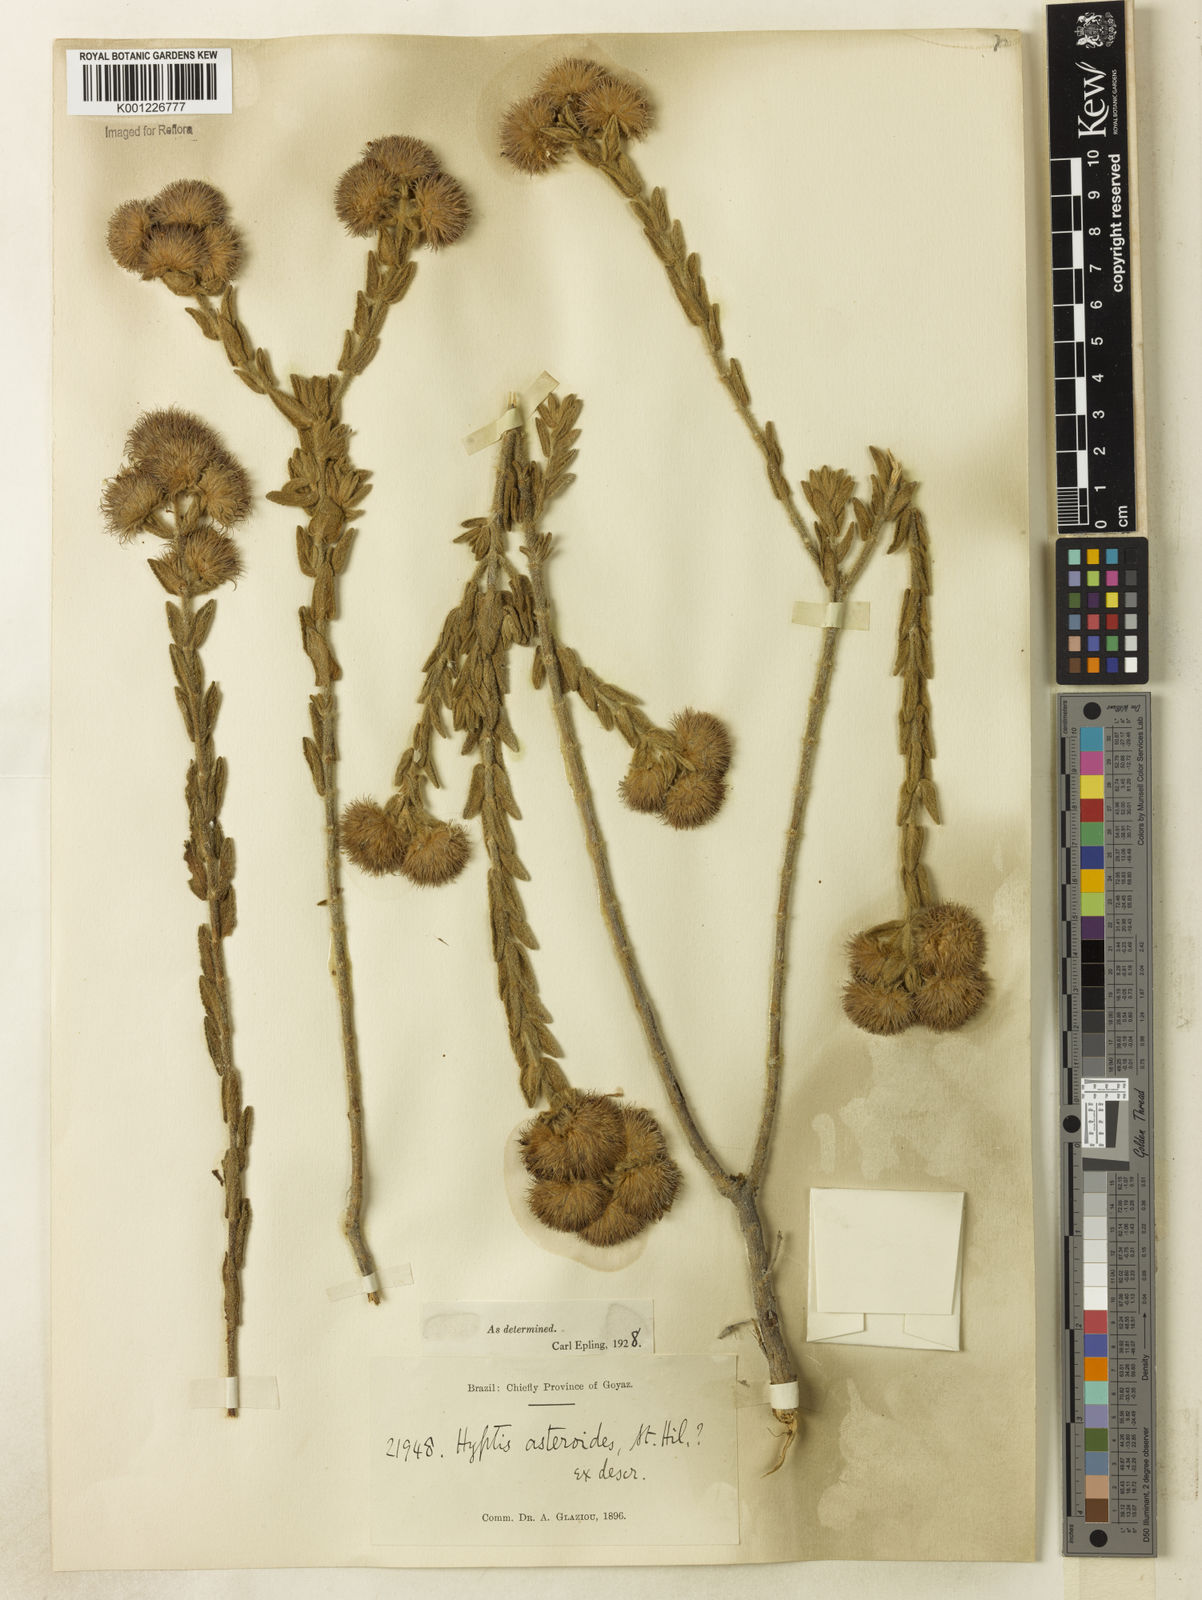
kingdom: Plantae
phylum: Tracheophyta
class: Magnoliopsida
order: Lamiales
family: Lamiaceae
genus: Hyptis
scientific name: Hyptis asteroides
